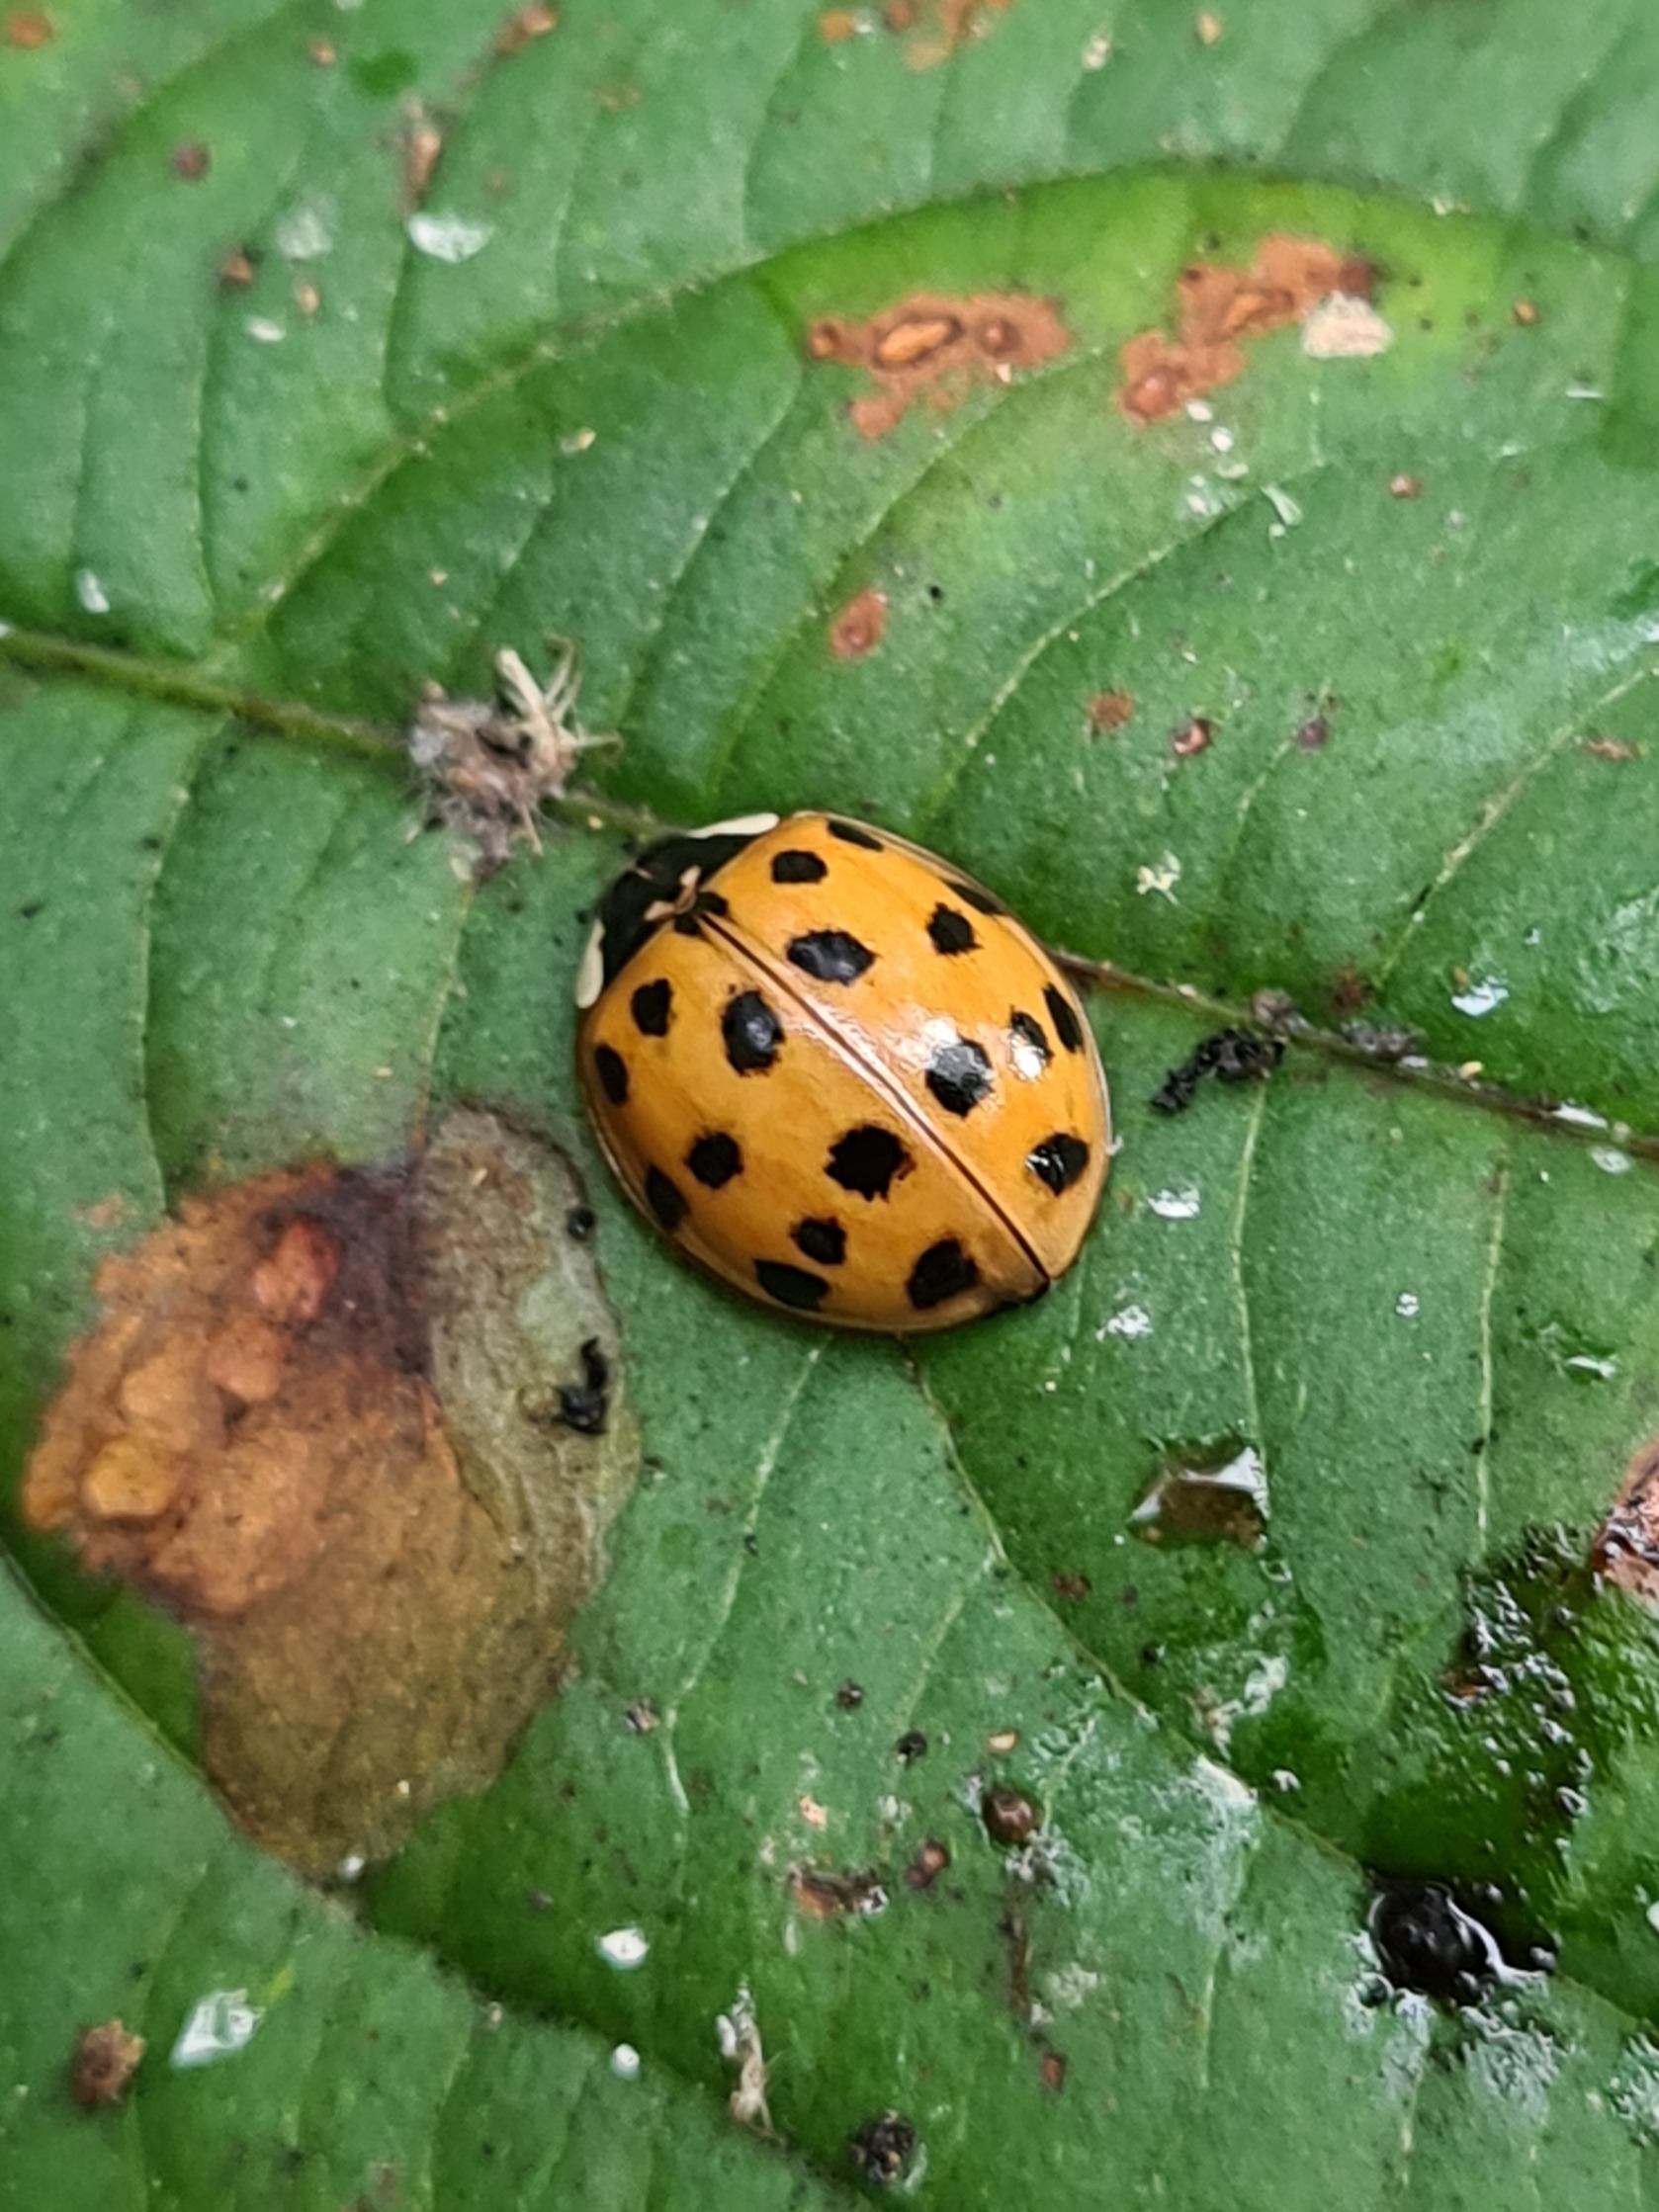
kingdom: Animalia
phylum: Arthropoda
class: Insecta
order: Coleoptera
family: Coccinellidae
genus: Harmonia
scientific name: Harmonia axyridis
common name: Harlekinmariehøne
